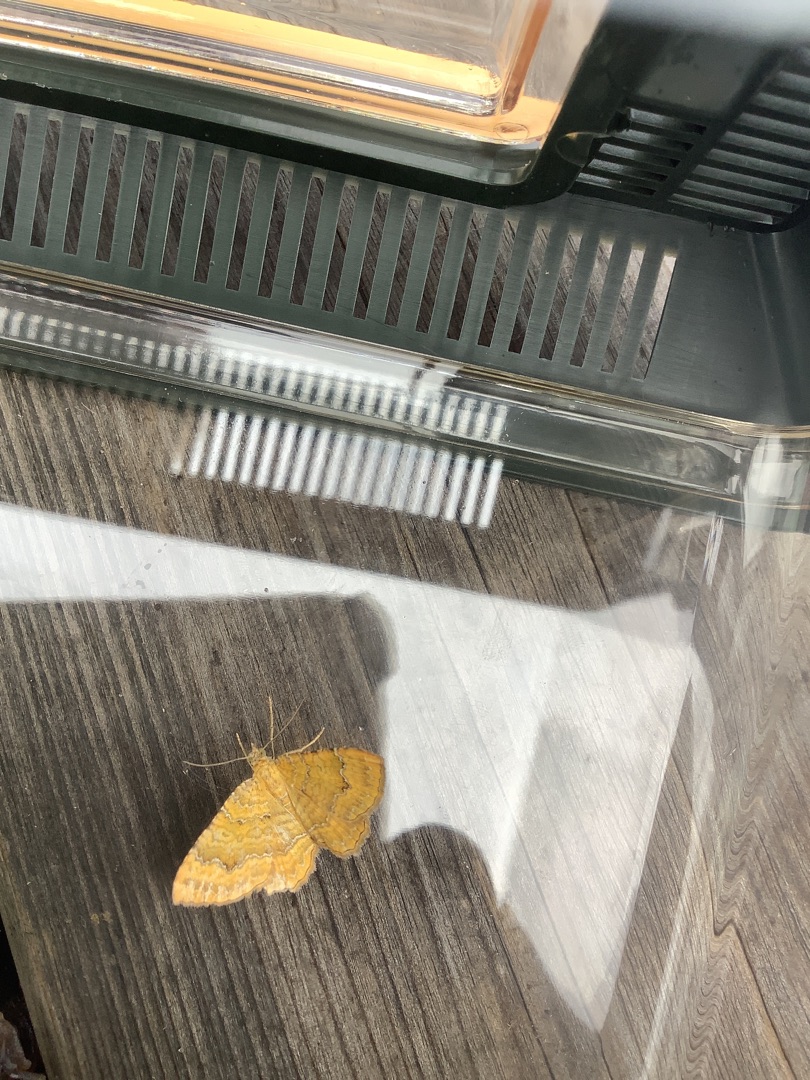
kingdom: Animalia
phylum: Arthropoda
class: Insecta
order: Lepidoptera
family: Geometridae
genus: Camptogramma
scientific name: Camptogramma bilineata
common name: Okkergul bladmåler
